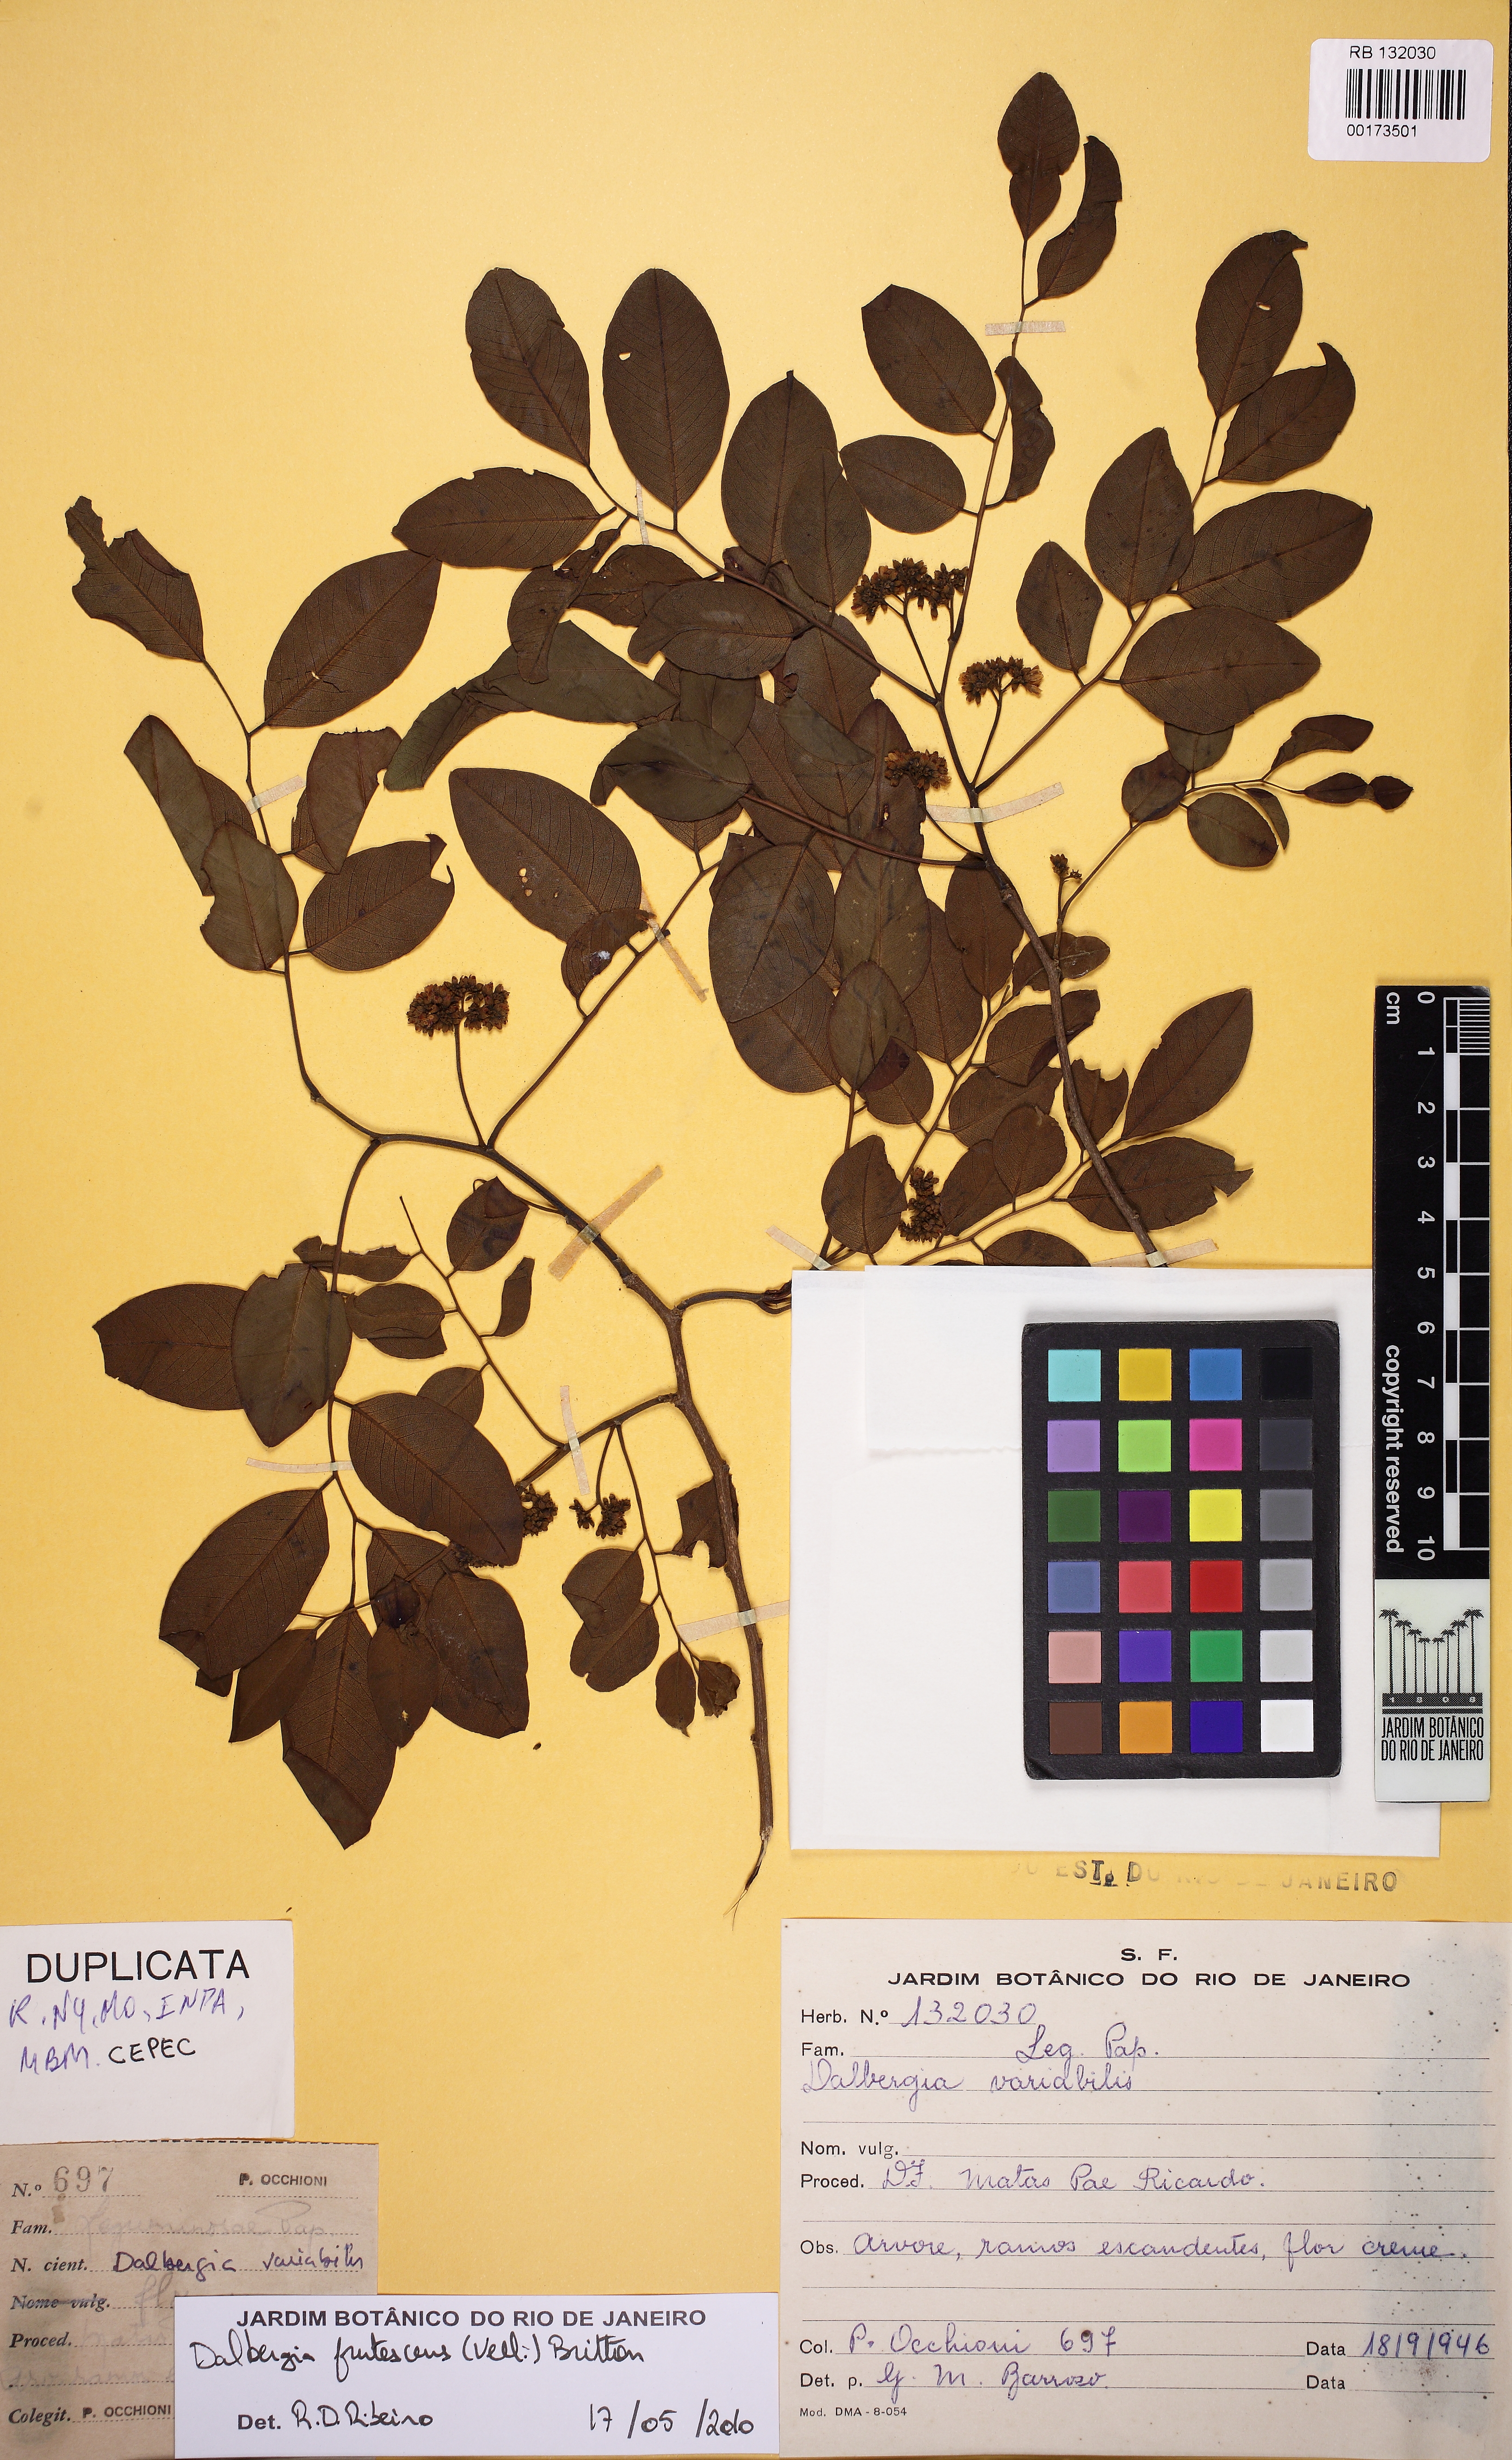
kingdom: Plantae
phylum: Tracheophyta
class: Magnoliopsida
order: Fabales
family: Fabaceae
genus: Dalbergia
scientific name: Dalbergia frutescens
